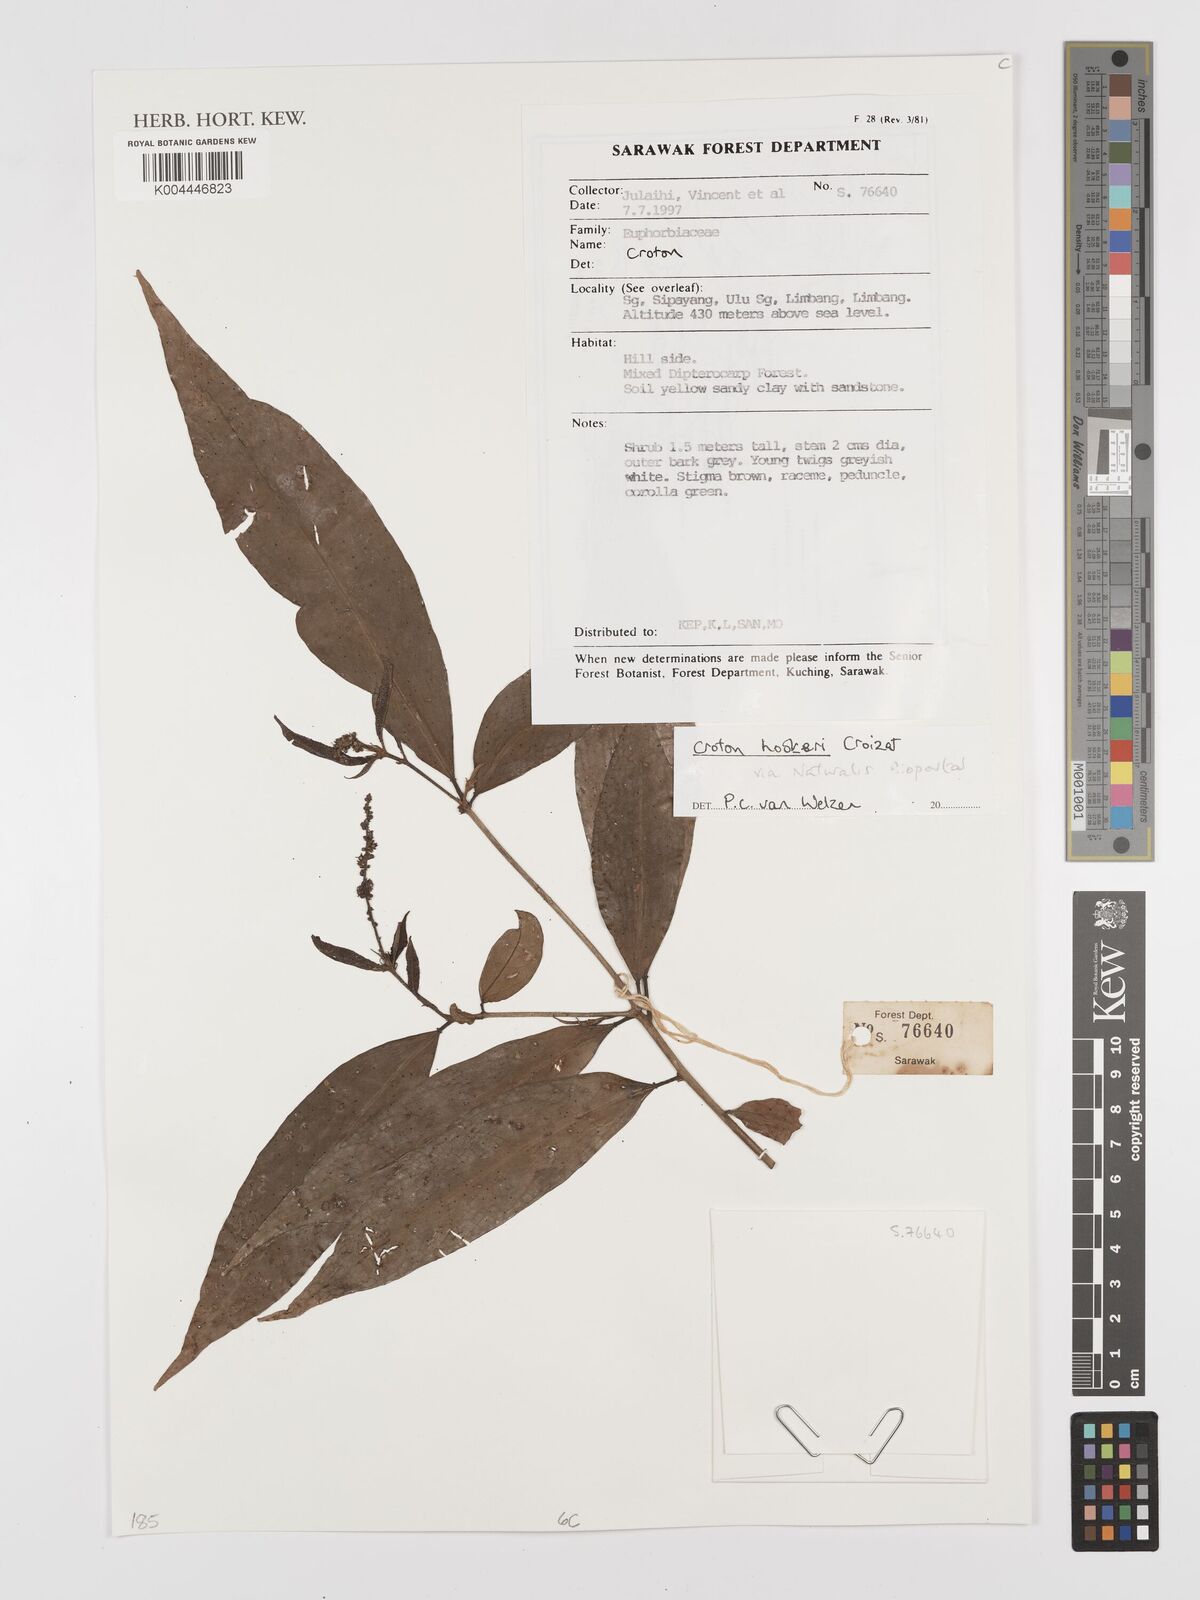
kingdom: Plantae
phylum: Tracheophyta
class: Magnoliopsida
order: Malpighiales
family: Euphorbiaceae
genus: Croton
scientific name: Croton
